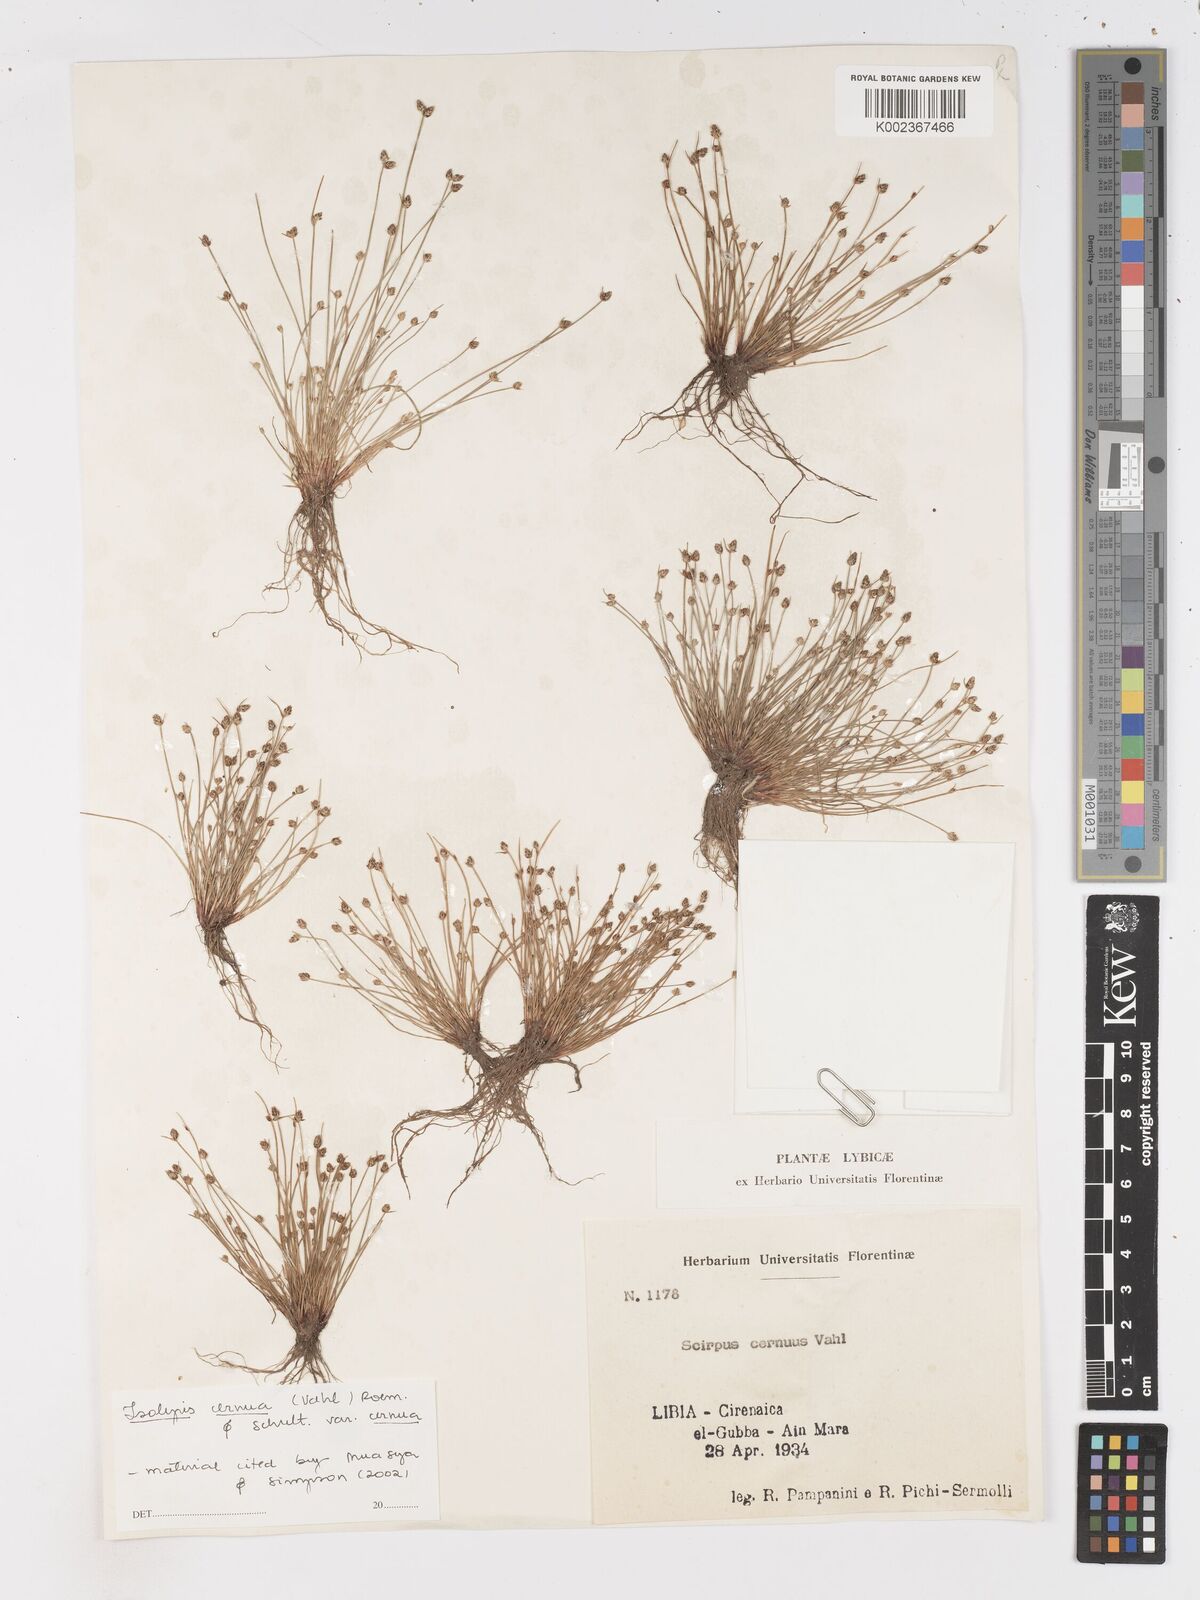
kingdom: Plantae
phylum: Tracheophyta
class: Liliopsida
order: Poales
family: Cyperaceae
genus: Isolepis
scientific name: Isolepis cernua
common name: Slender club-rush
